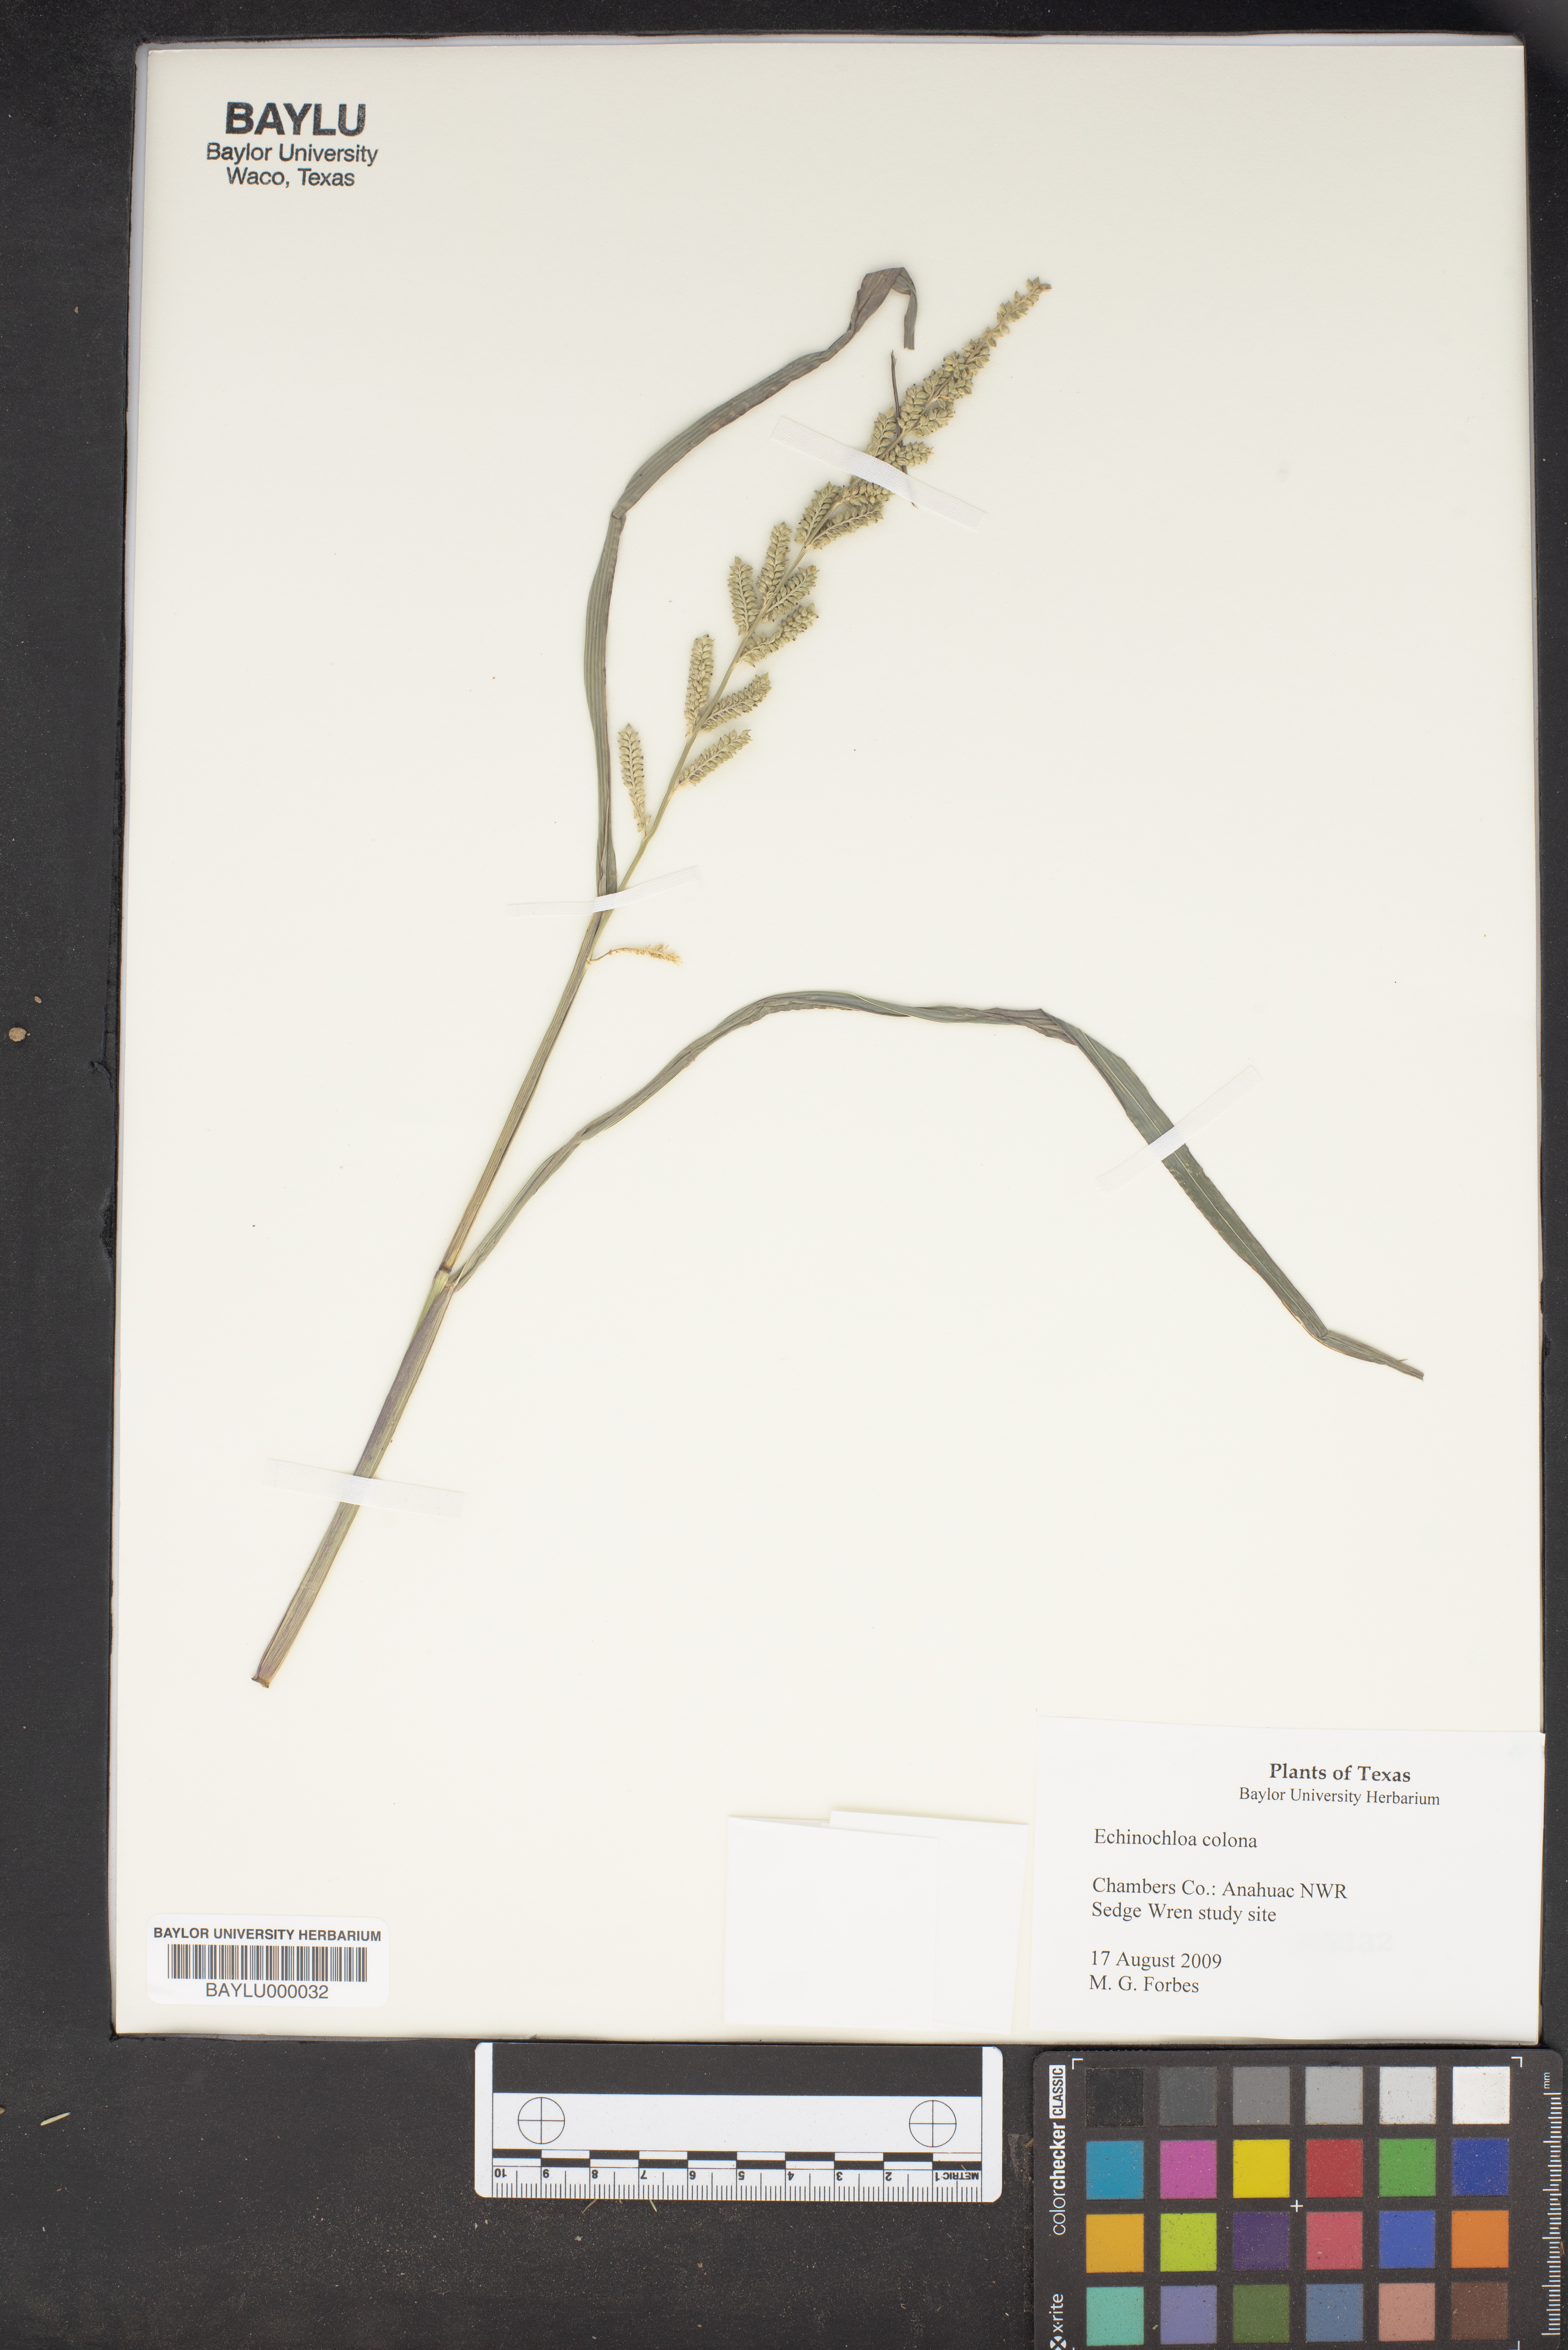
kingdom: Plantae
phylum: Tracheophyta
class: Liliopsida
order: Poales
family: Poaceae
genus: Echinochloa
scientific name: Echinochloa colonum
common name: Jungle rice
